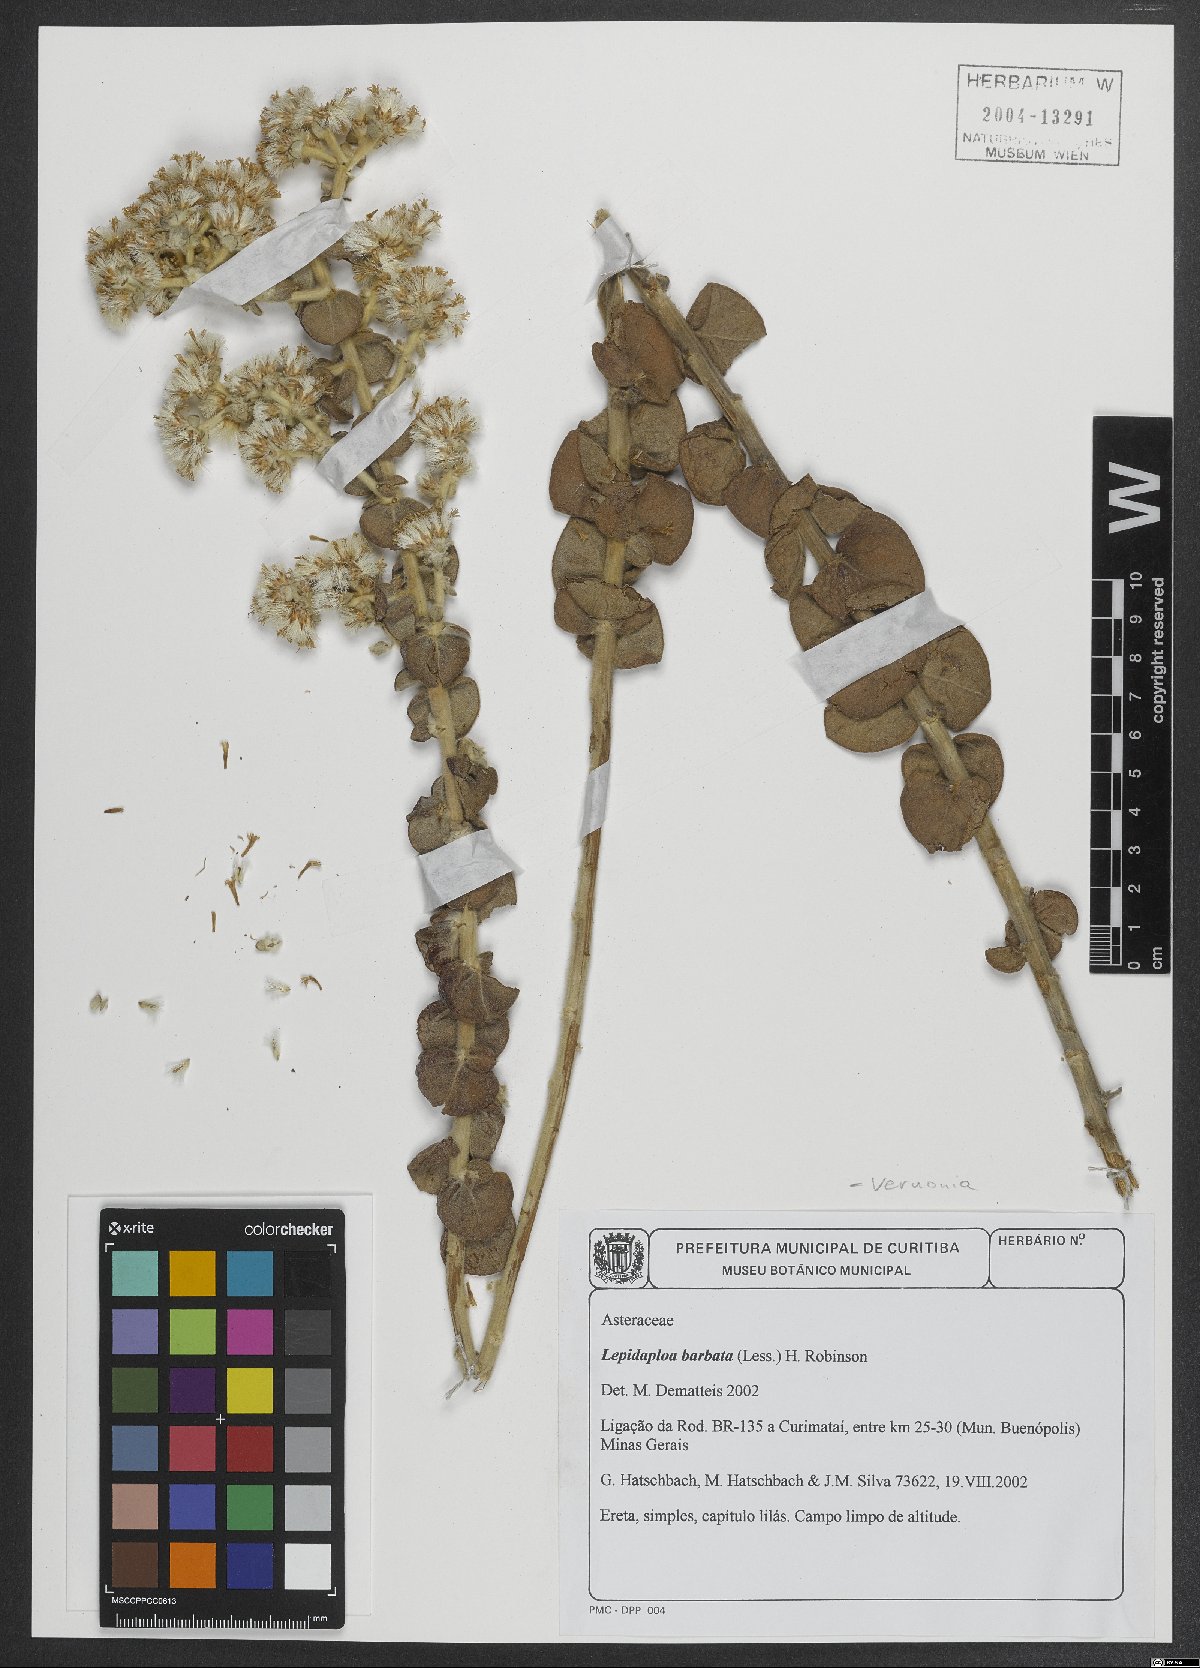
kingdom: Plantae
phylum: Tracheophyta
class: Magnoliopsida
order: Asterales
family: Asteraceae
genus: Lepidaploa
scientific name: Lepidaploa barbata
